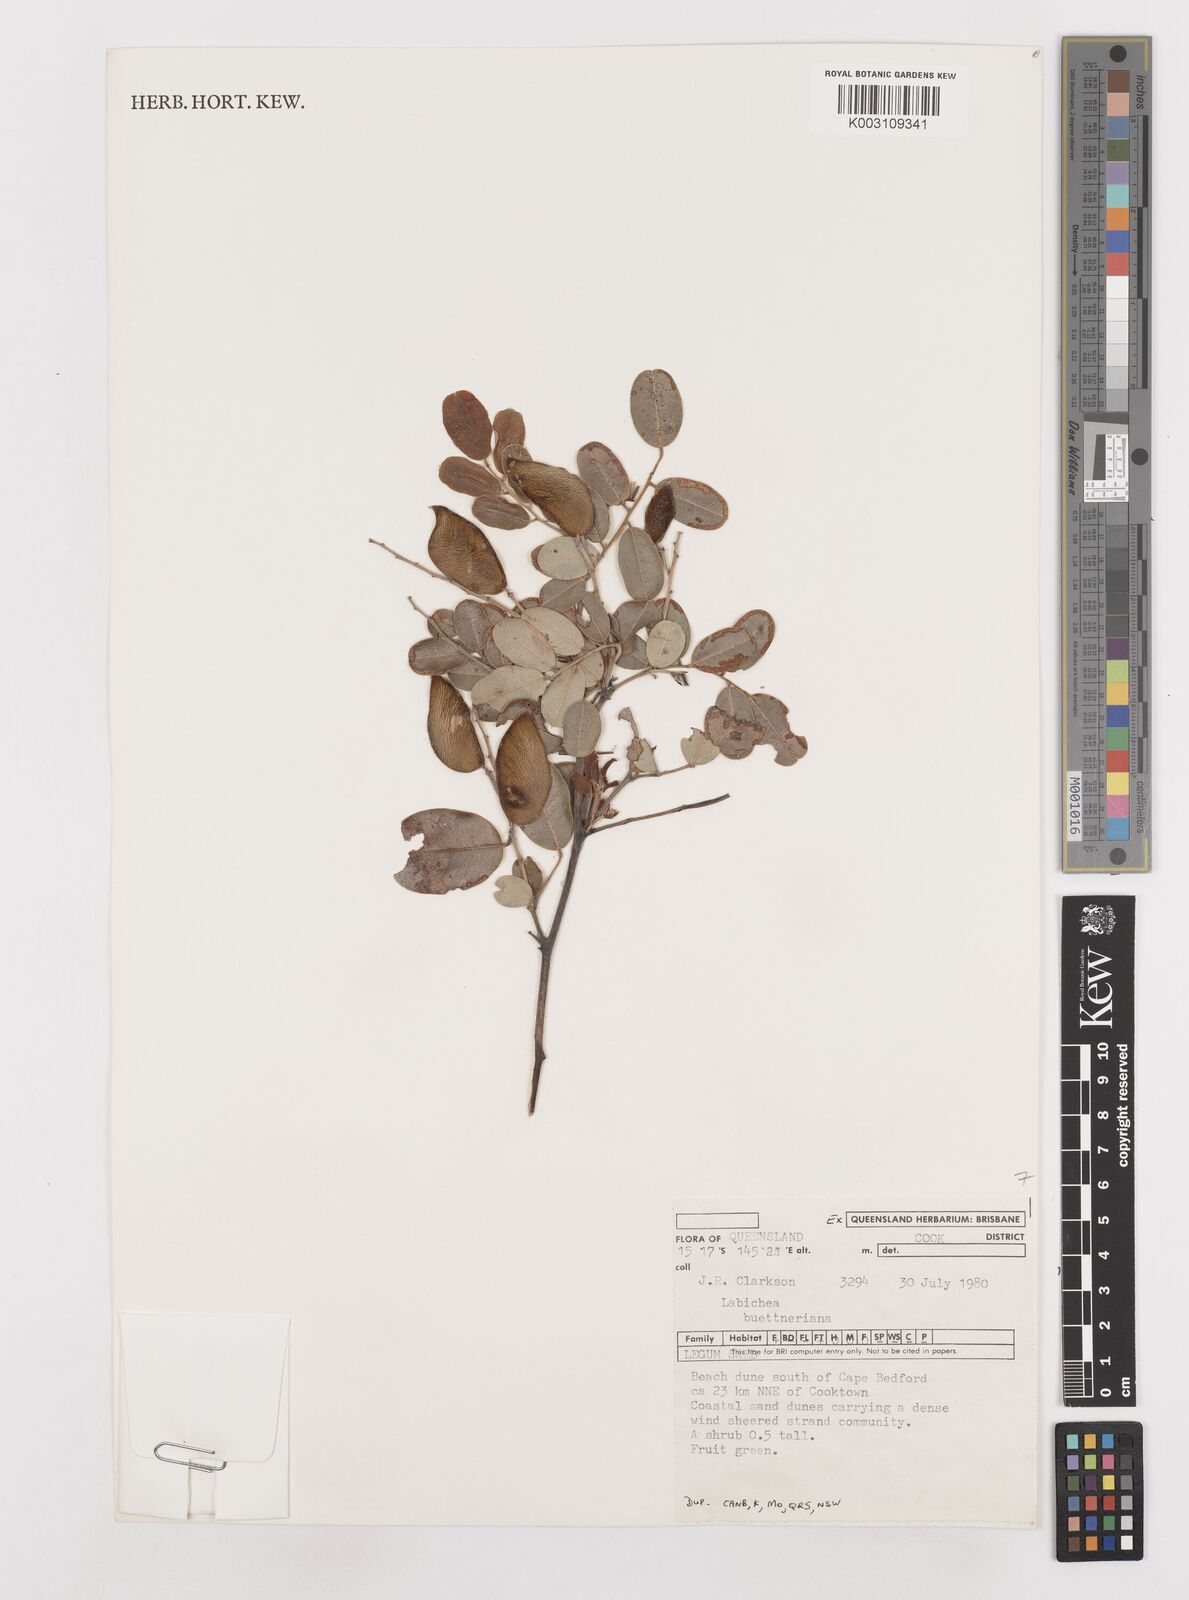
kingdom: Plantae
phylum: Tracheophyta
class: Magnoliopsida
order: Fabales
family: Fabaceae
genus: Labichea
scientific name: Labichea buettneriana
